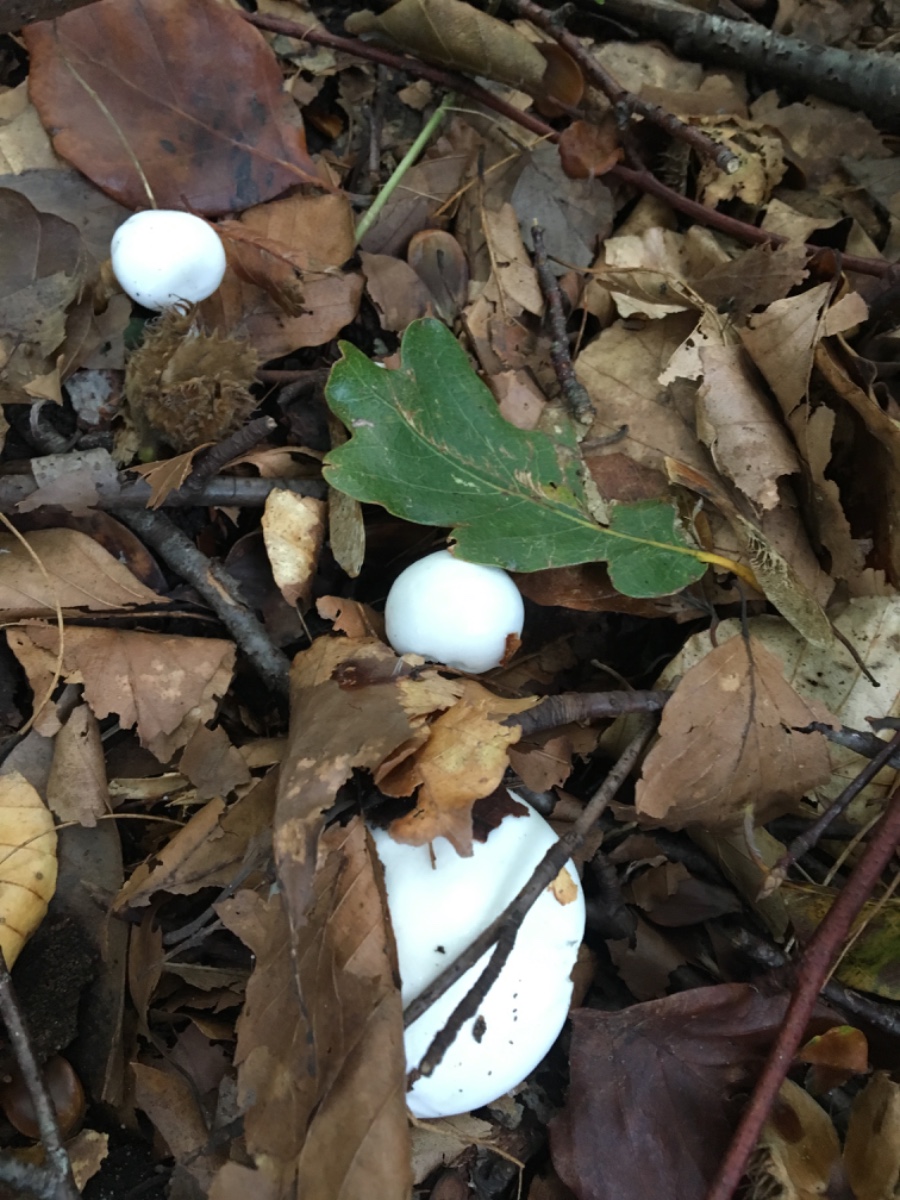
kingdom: Fungi
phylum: Basidiomycota
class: Agaricomycetes
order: Agaricales
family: Hygrophoraceae
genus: Hygrophorus
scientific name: Hygrophorus
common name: sneglehat
